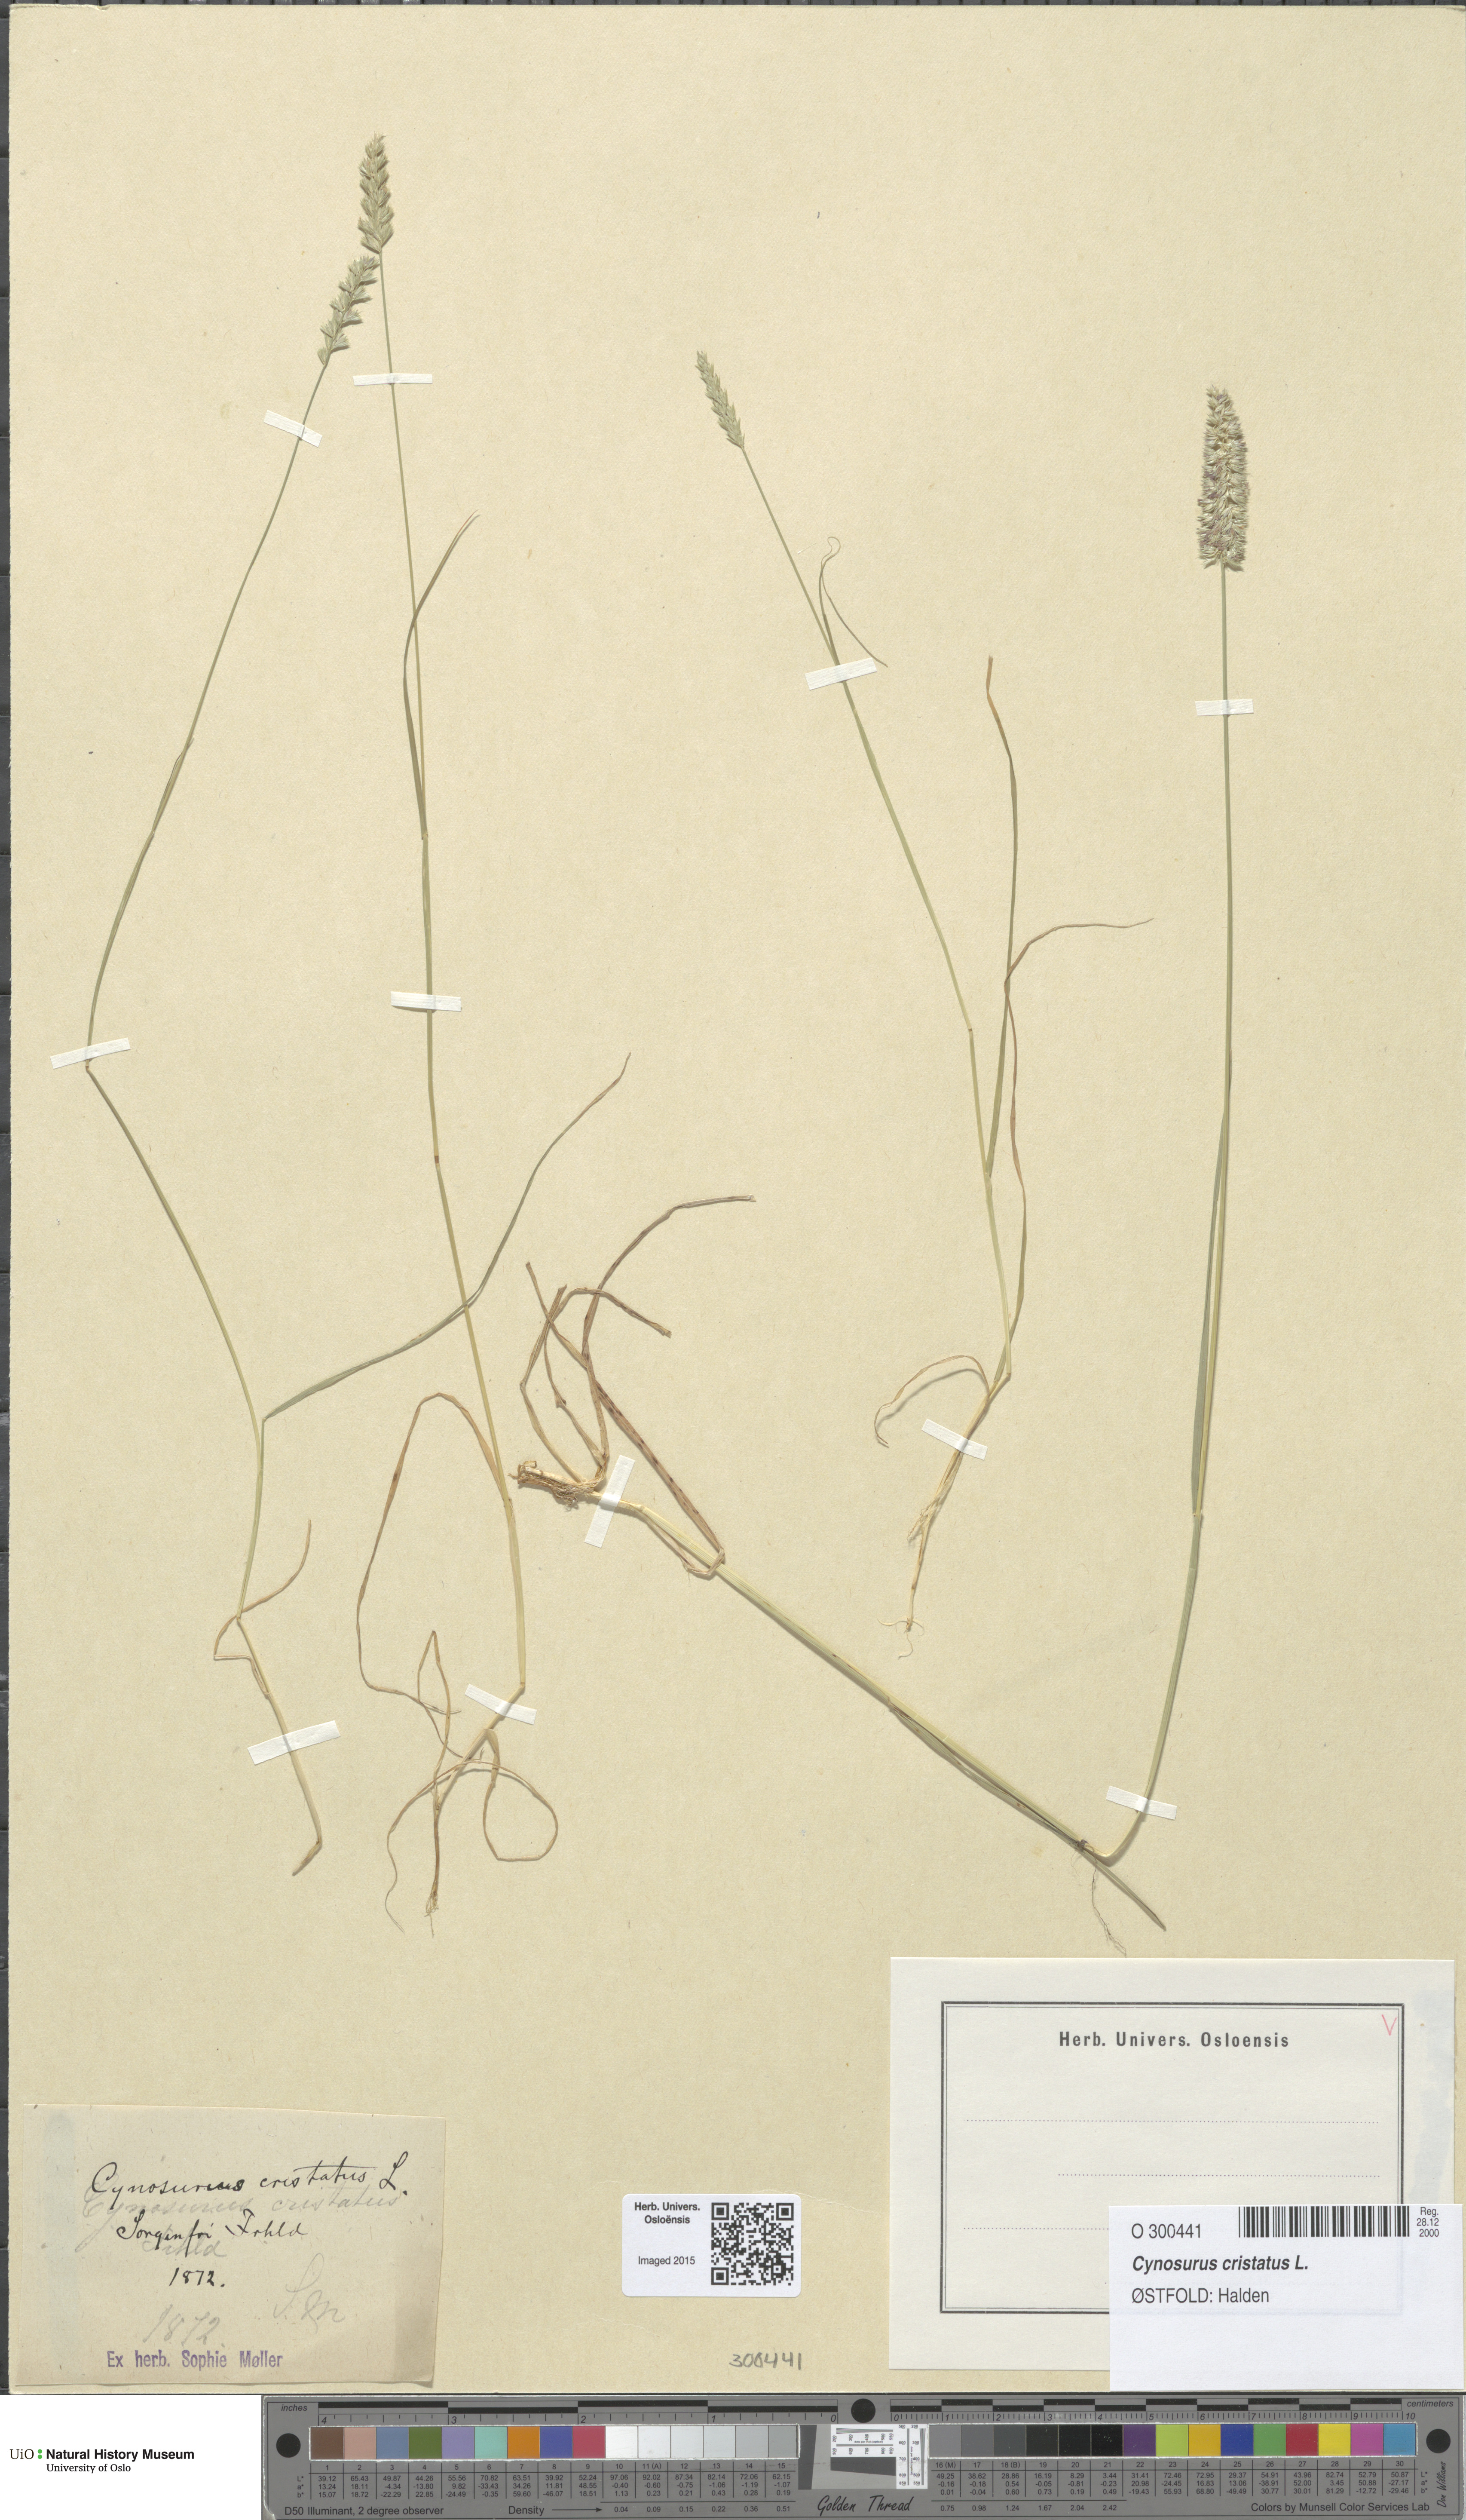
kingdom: Plantae
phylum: Tracheophyta
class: Liliopsida
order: Poales
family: Poaceae
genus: Cynosurus
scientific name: Cynosurus cristatus
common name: Crested dog's-tail
